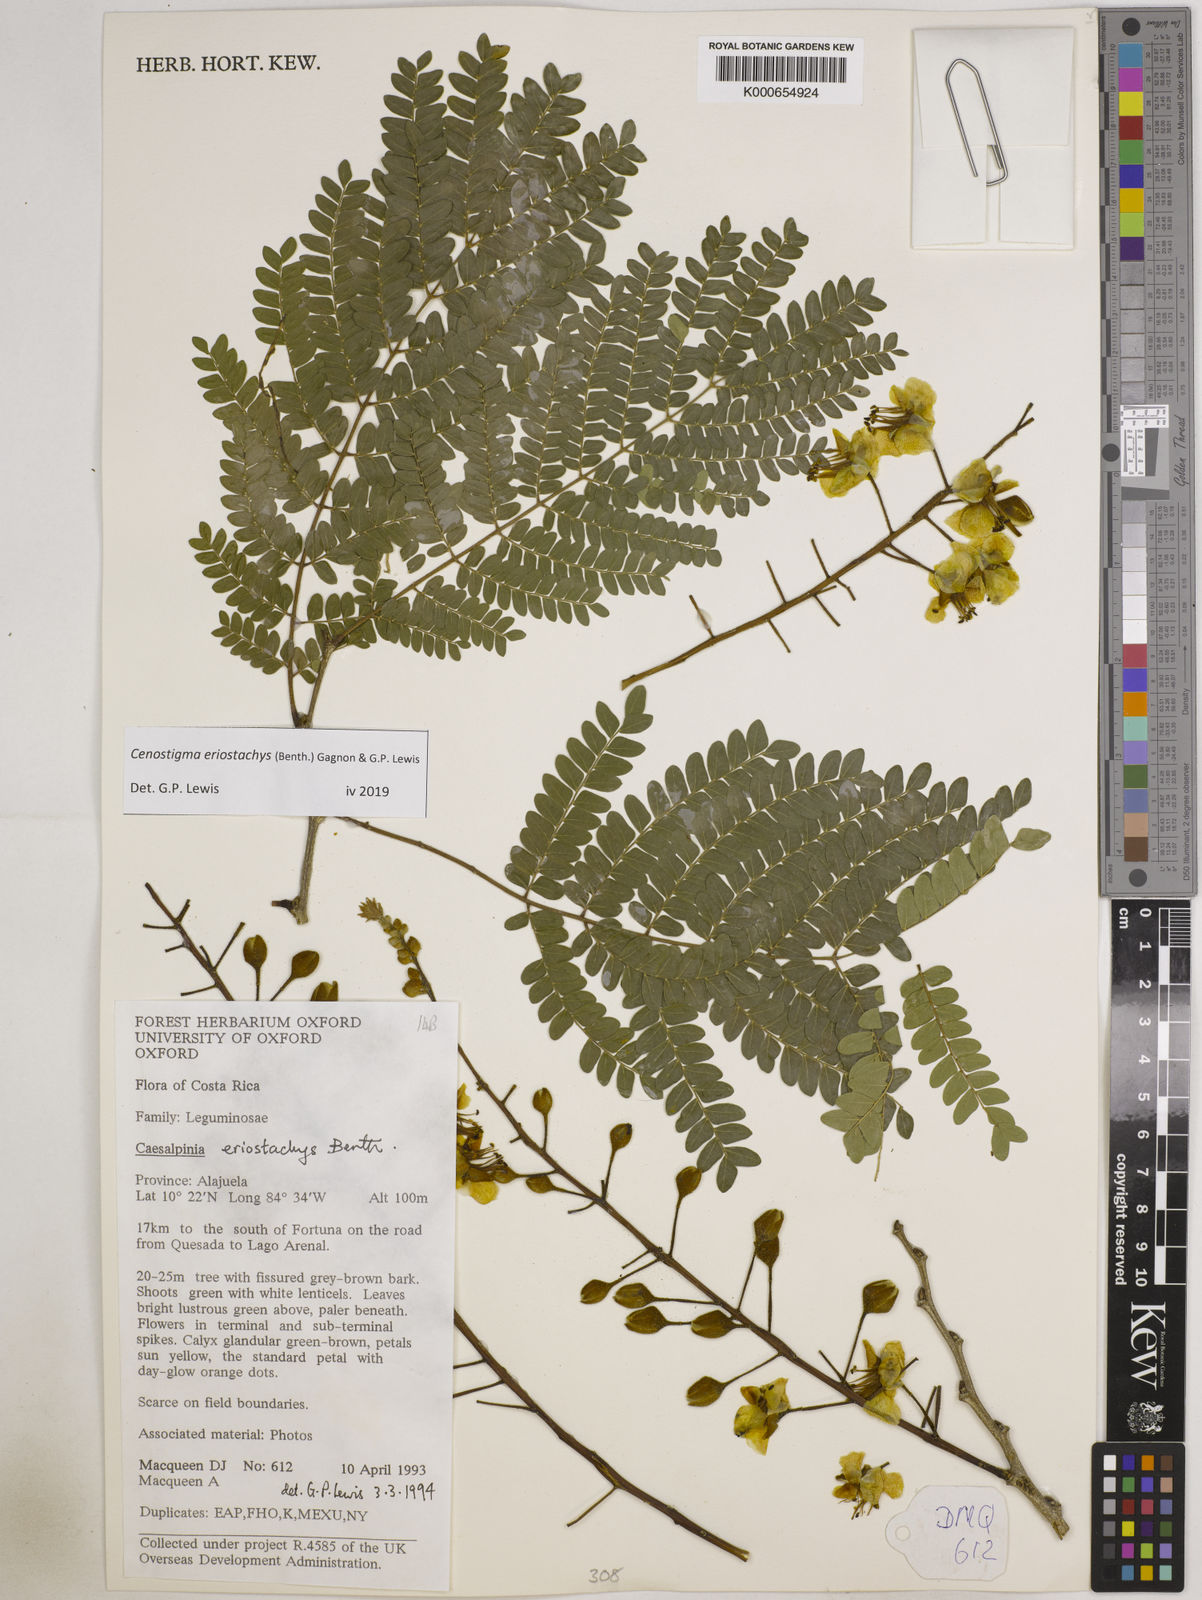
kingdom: Plantae
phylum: Tracheophyta
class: Magnoliopsida
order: Fabales
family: Fabaceae
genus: Cenostigma
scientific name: Cenostigma eriostachys
